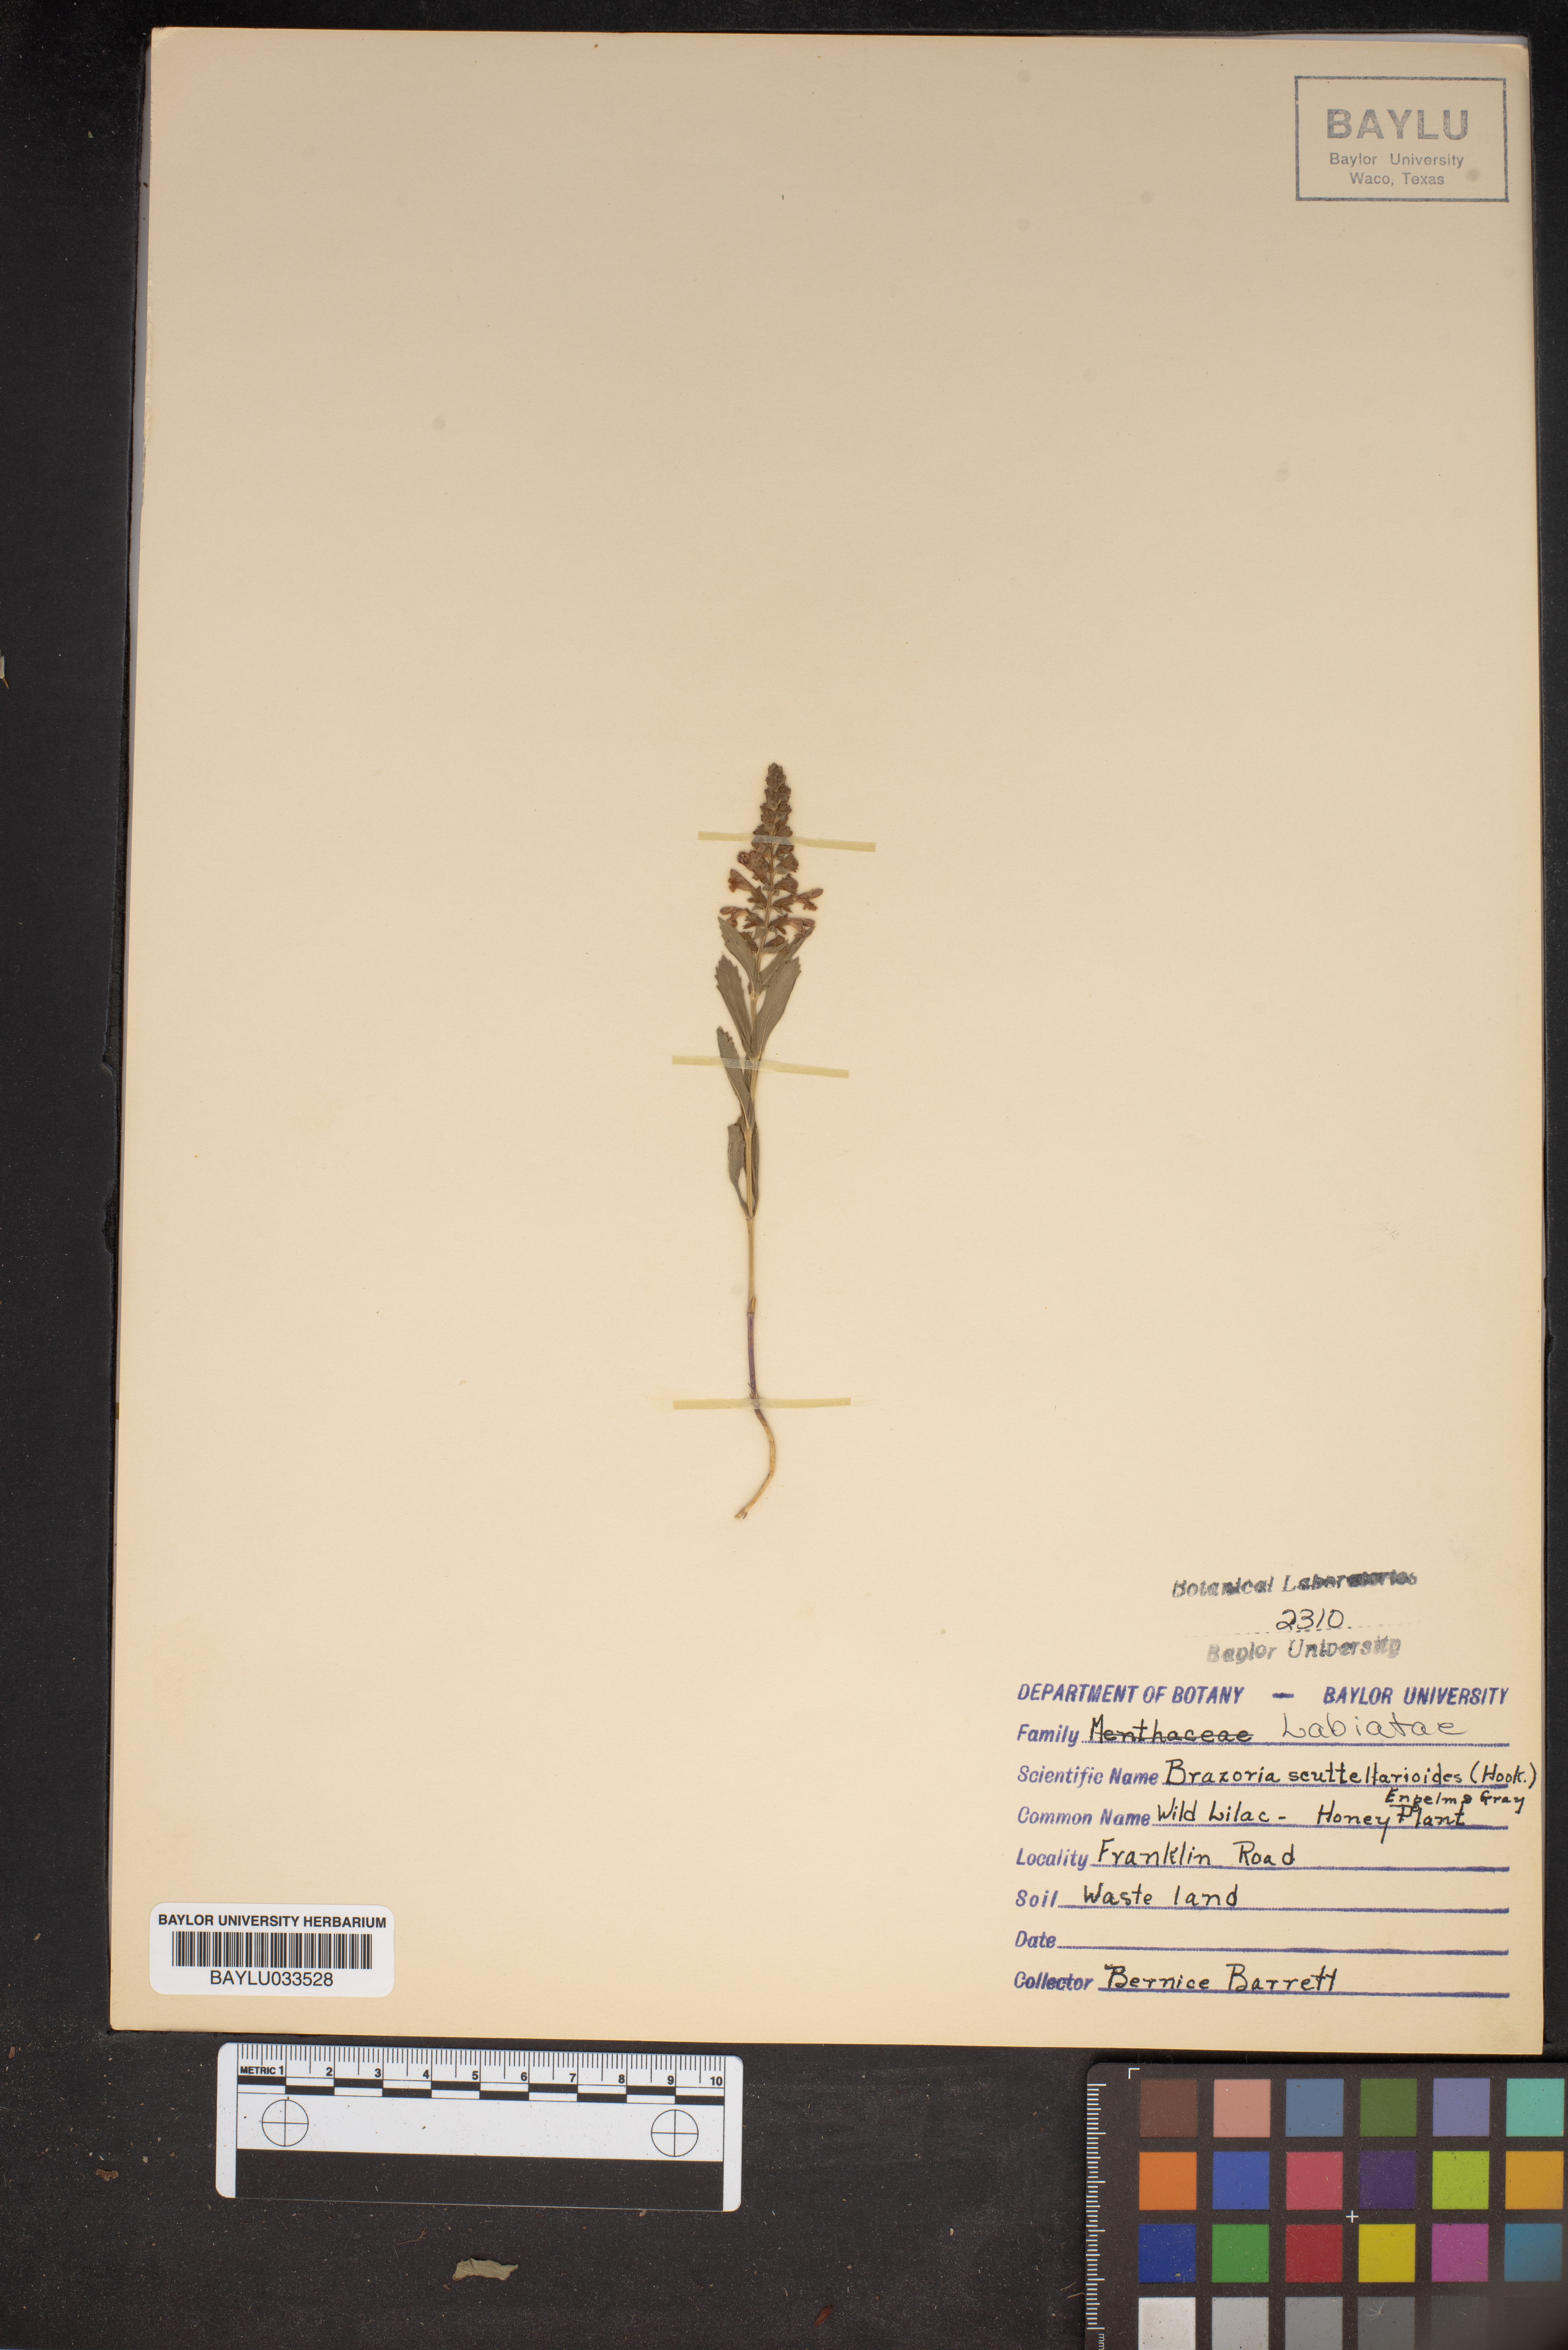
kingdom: Plantae
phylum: Tracheophyta
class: Magnoliopsida
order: Lamiales
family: Lamiaceae
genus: Warnockia
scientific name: Warnockia scutellarioides
